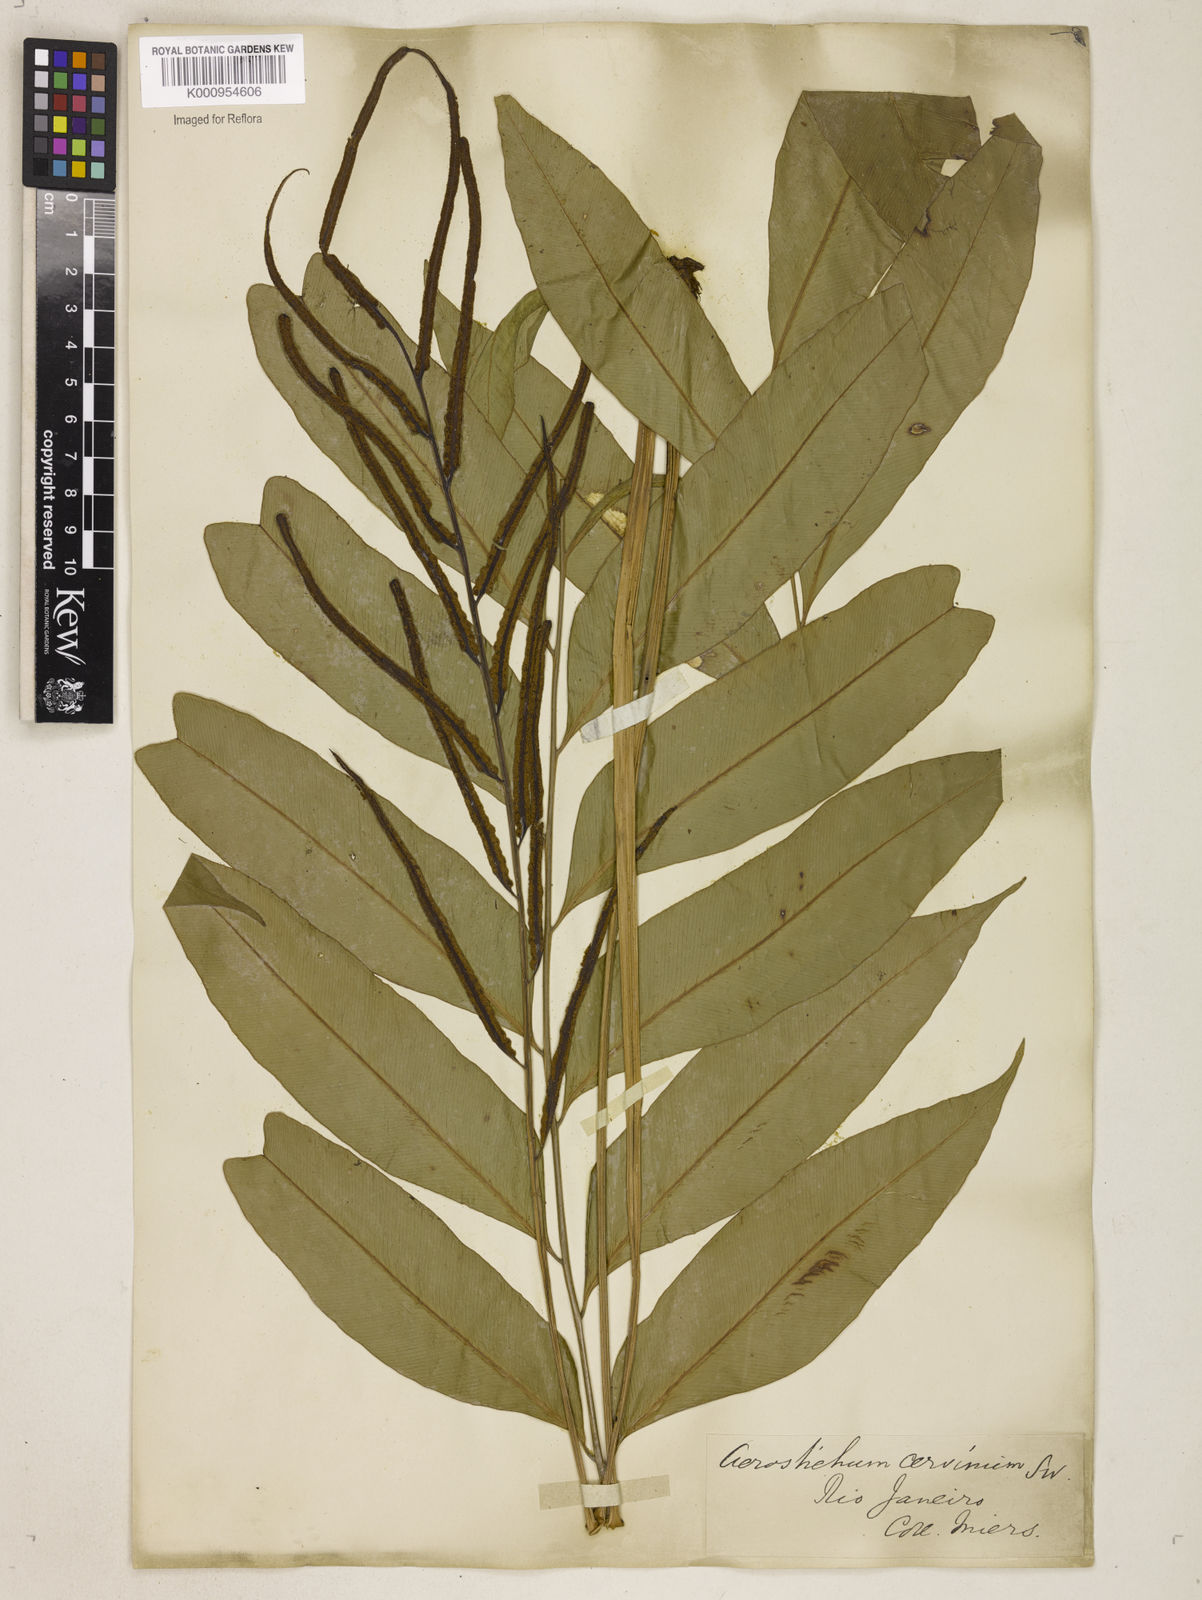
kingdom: Plantae
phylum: Tracheophyta
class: Polypodiopsida
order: Polypodiales
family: Dryopteridaceae
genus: Polystichum
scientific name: Polystichum
